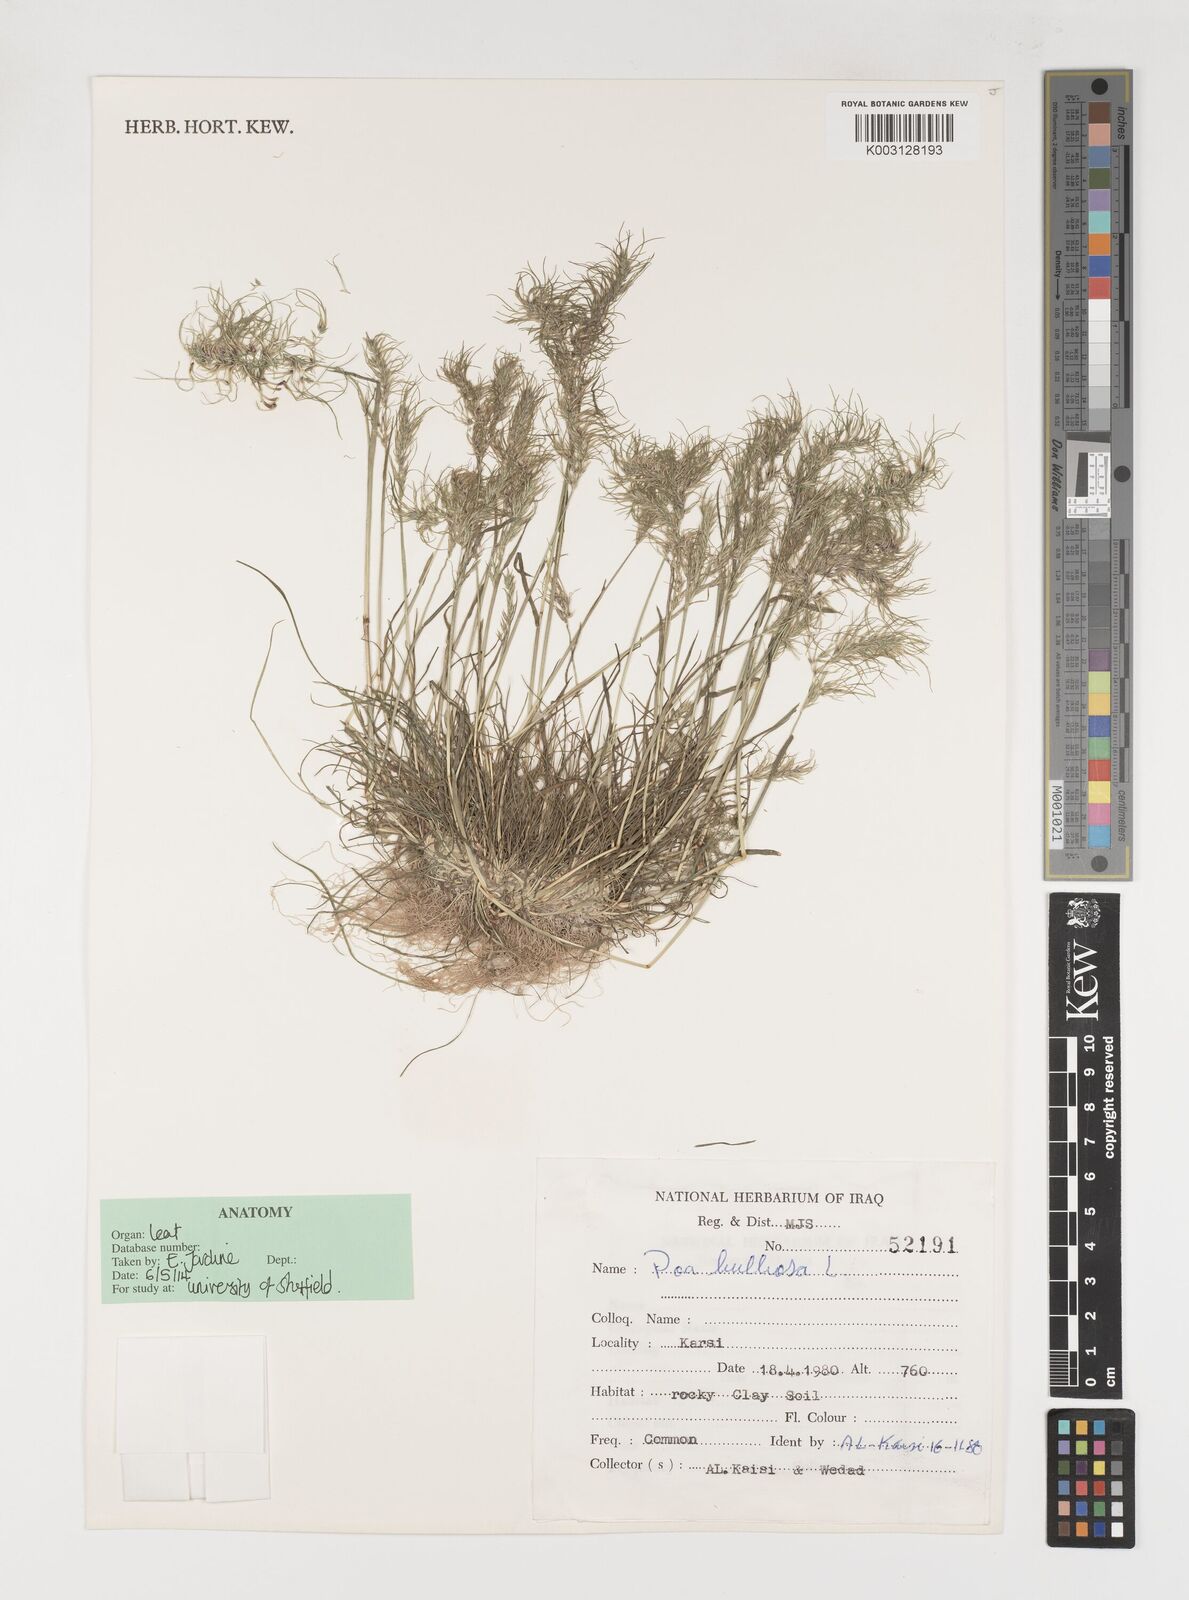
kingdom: Plantae
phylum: Tracheophyta
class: Liliopsida
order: Poales
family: Poaceae
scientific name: Poaceae
